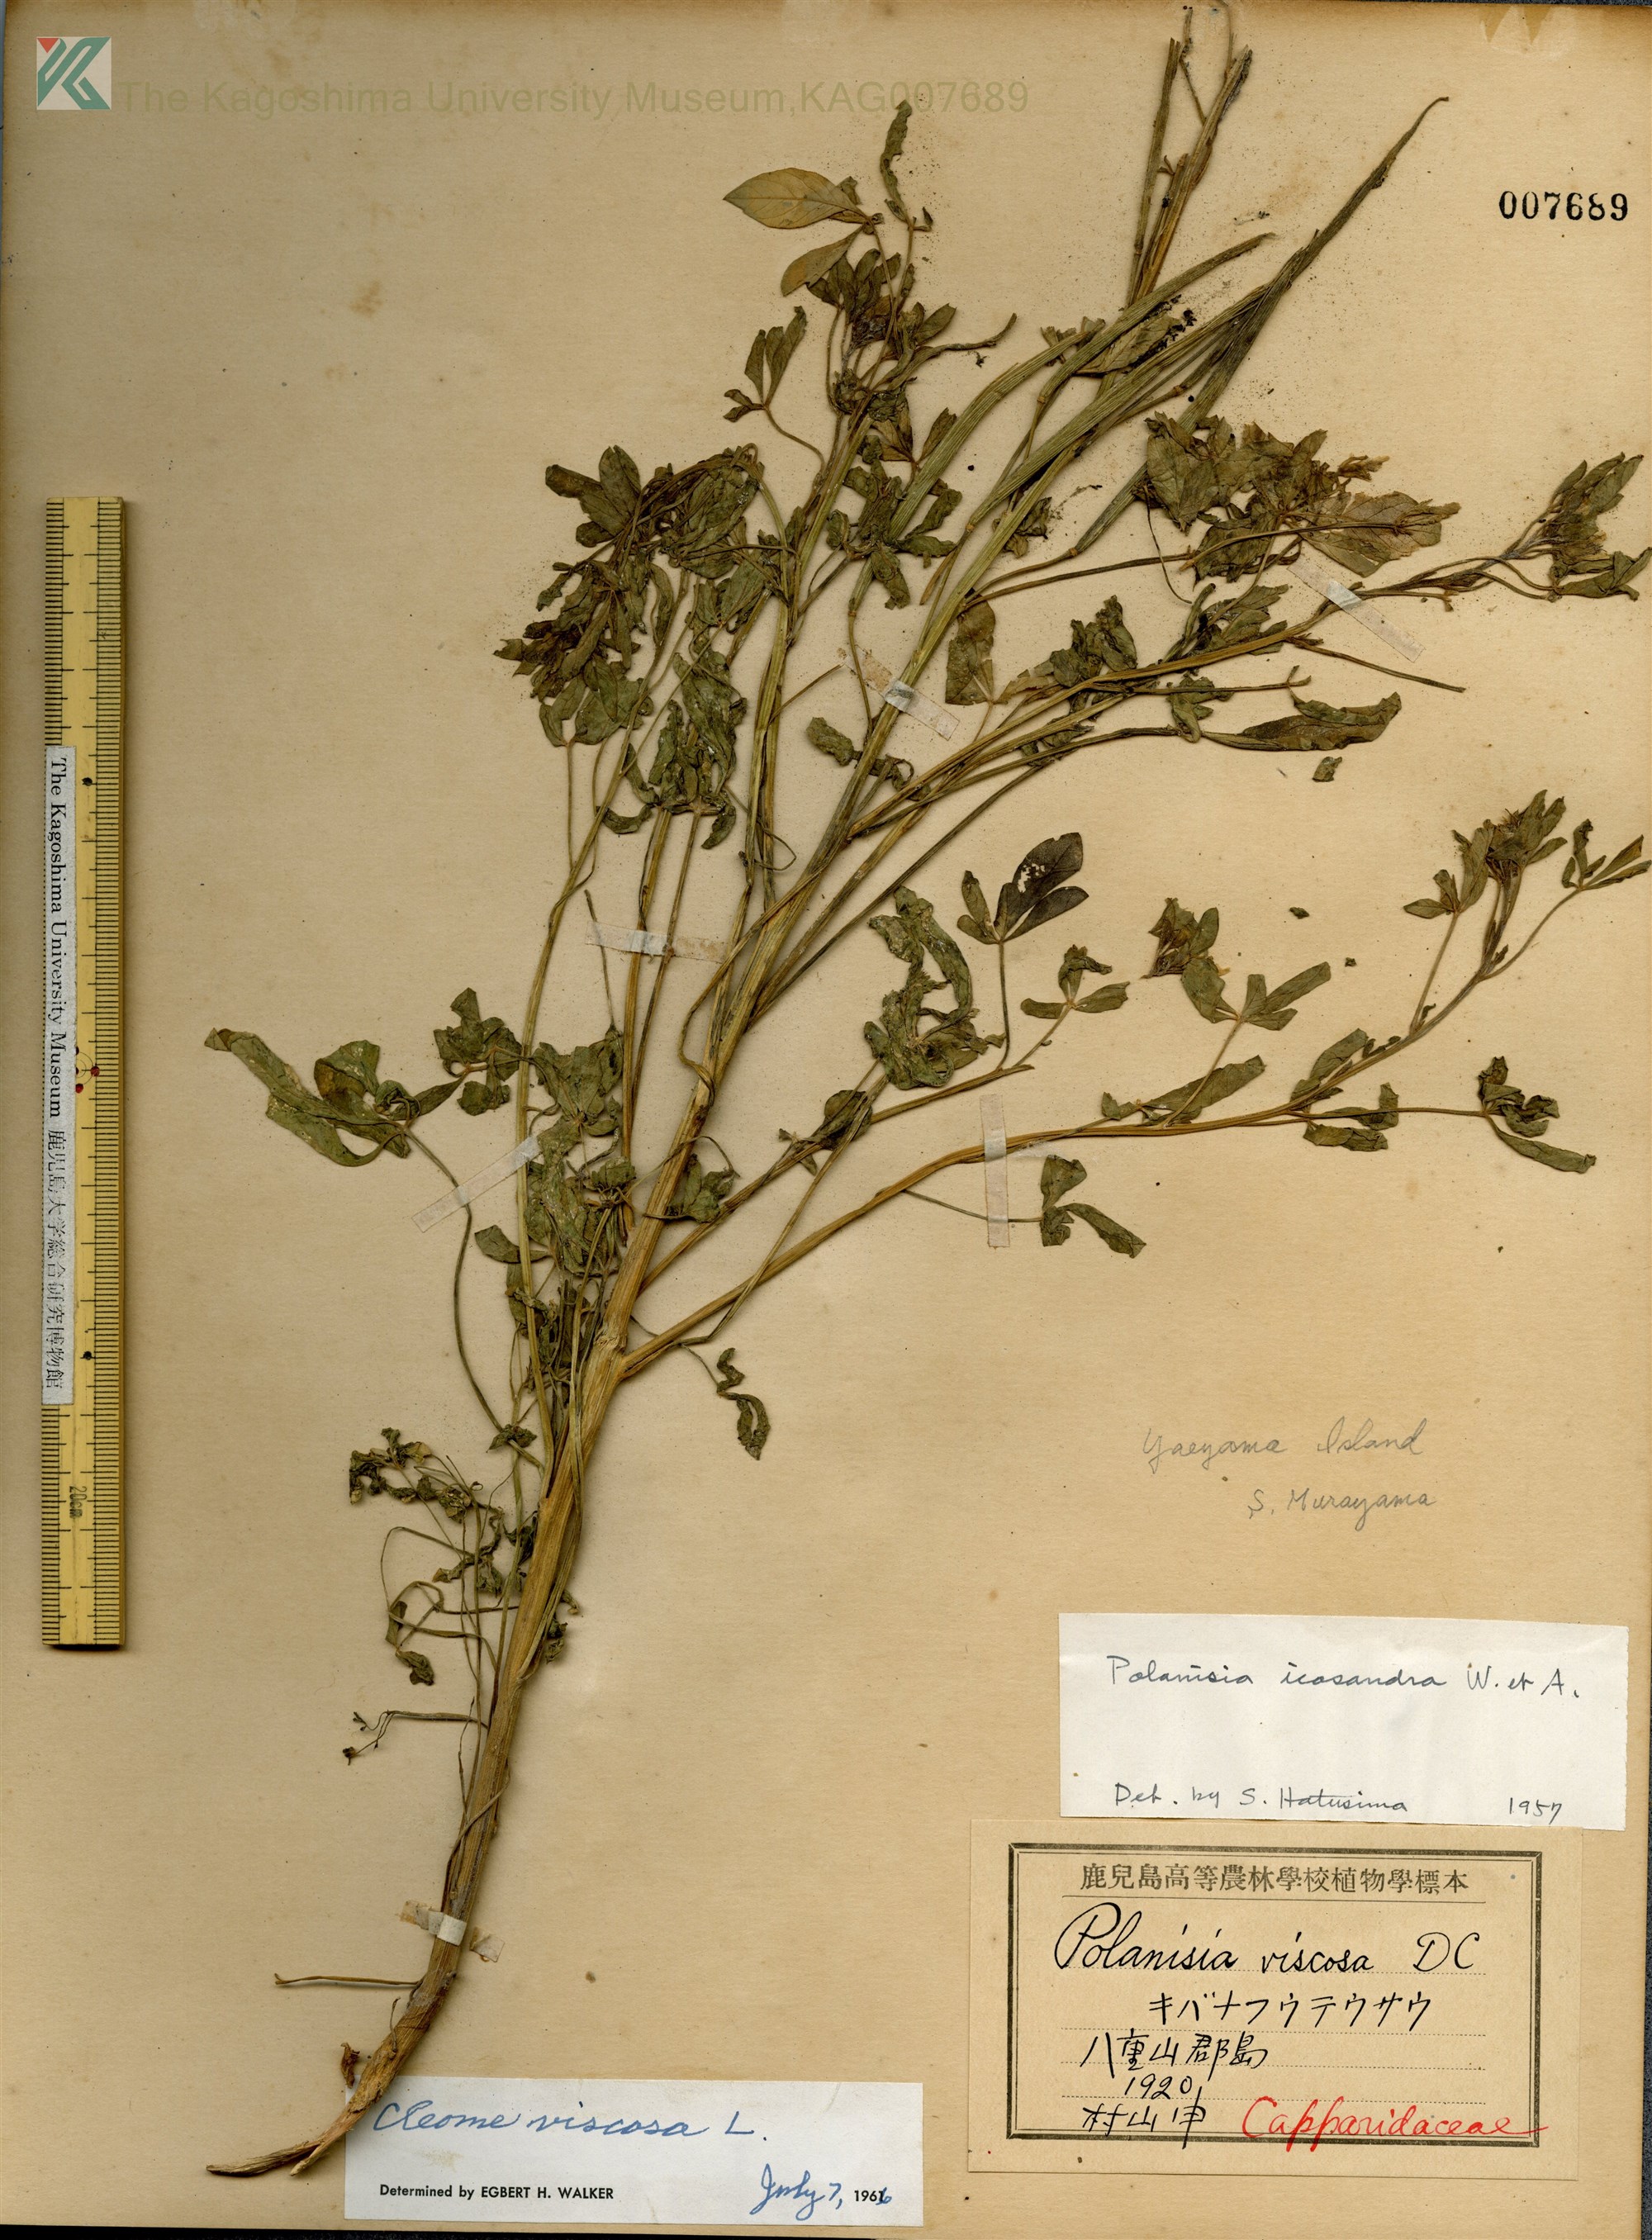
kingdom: Plantae
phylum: Tracheophyta
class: Magnoliopsida
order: Brassicales
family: Cleomaceae
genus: Arivela
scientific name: Arivela viscosa
